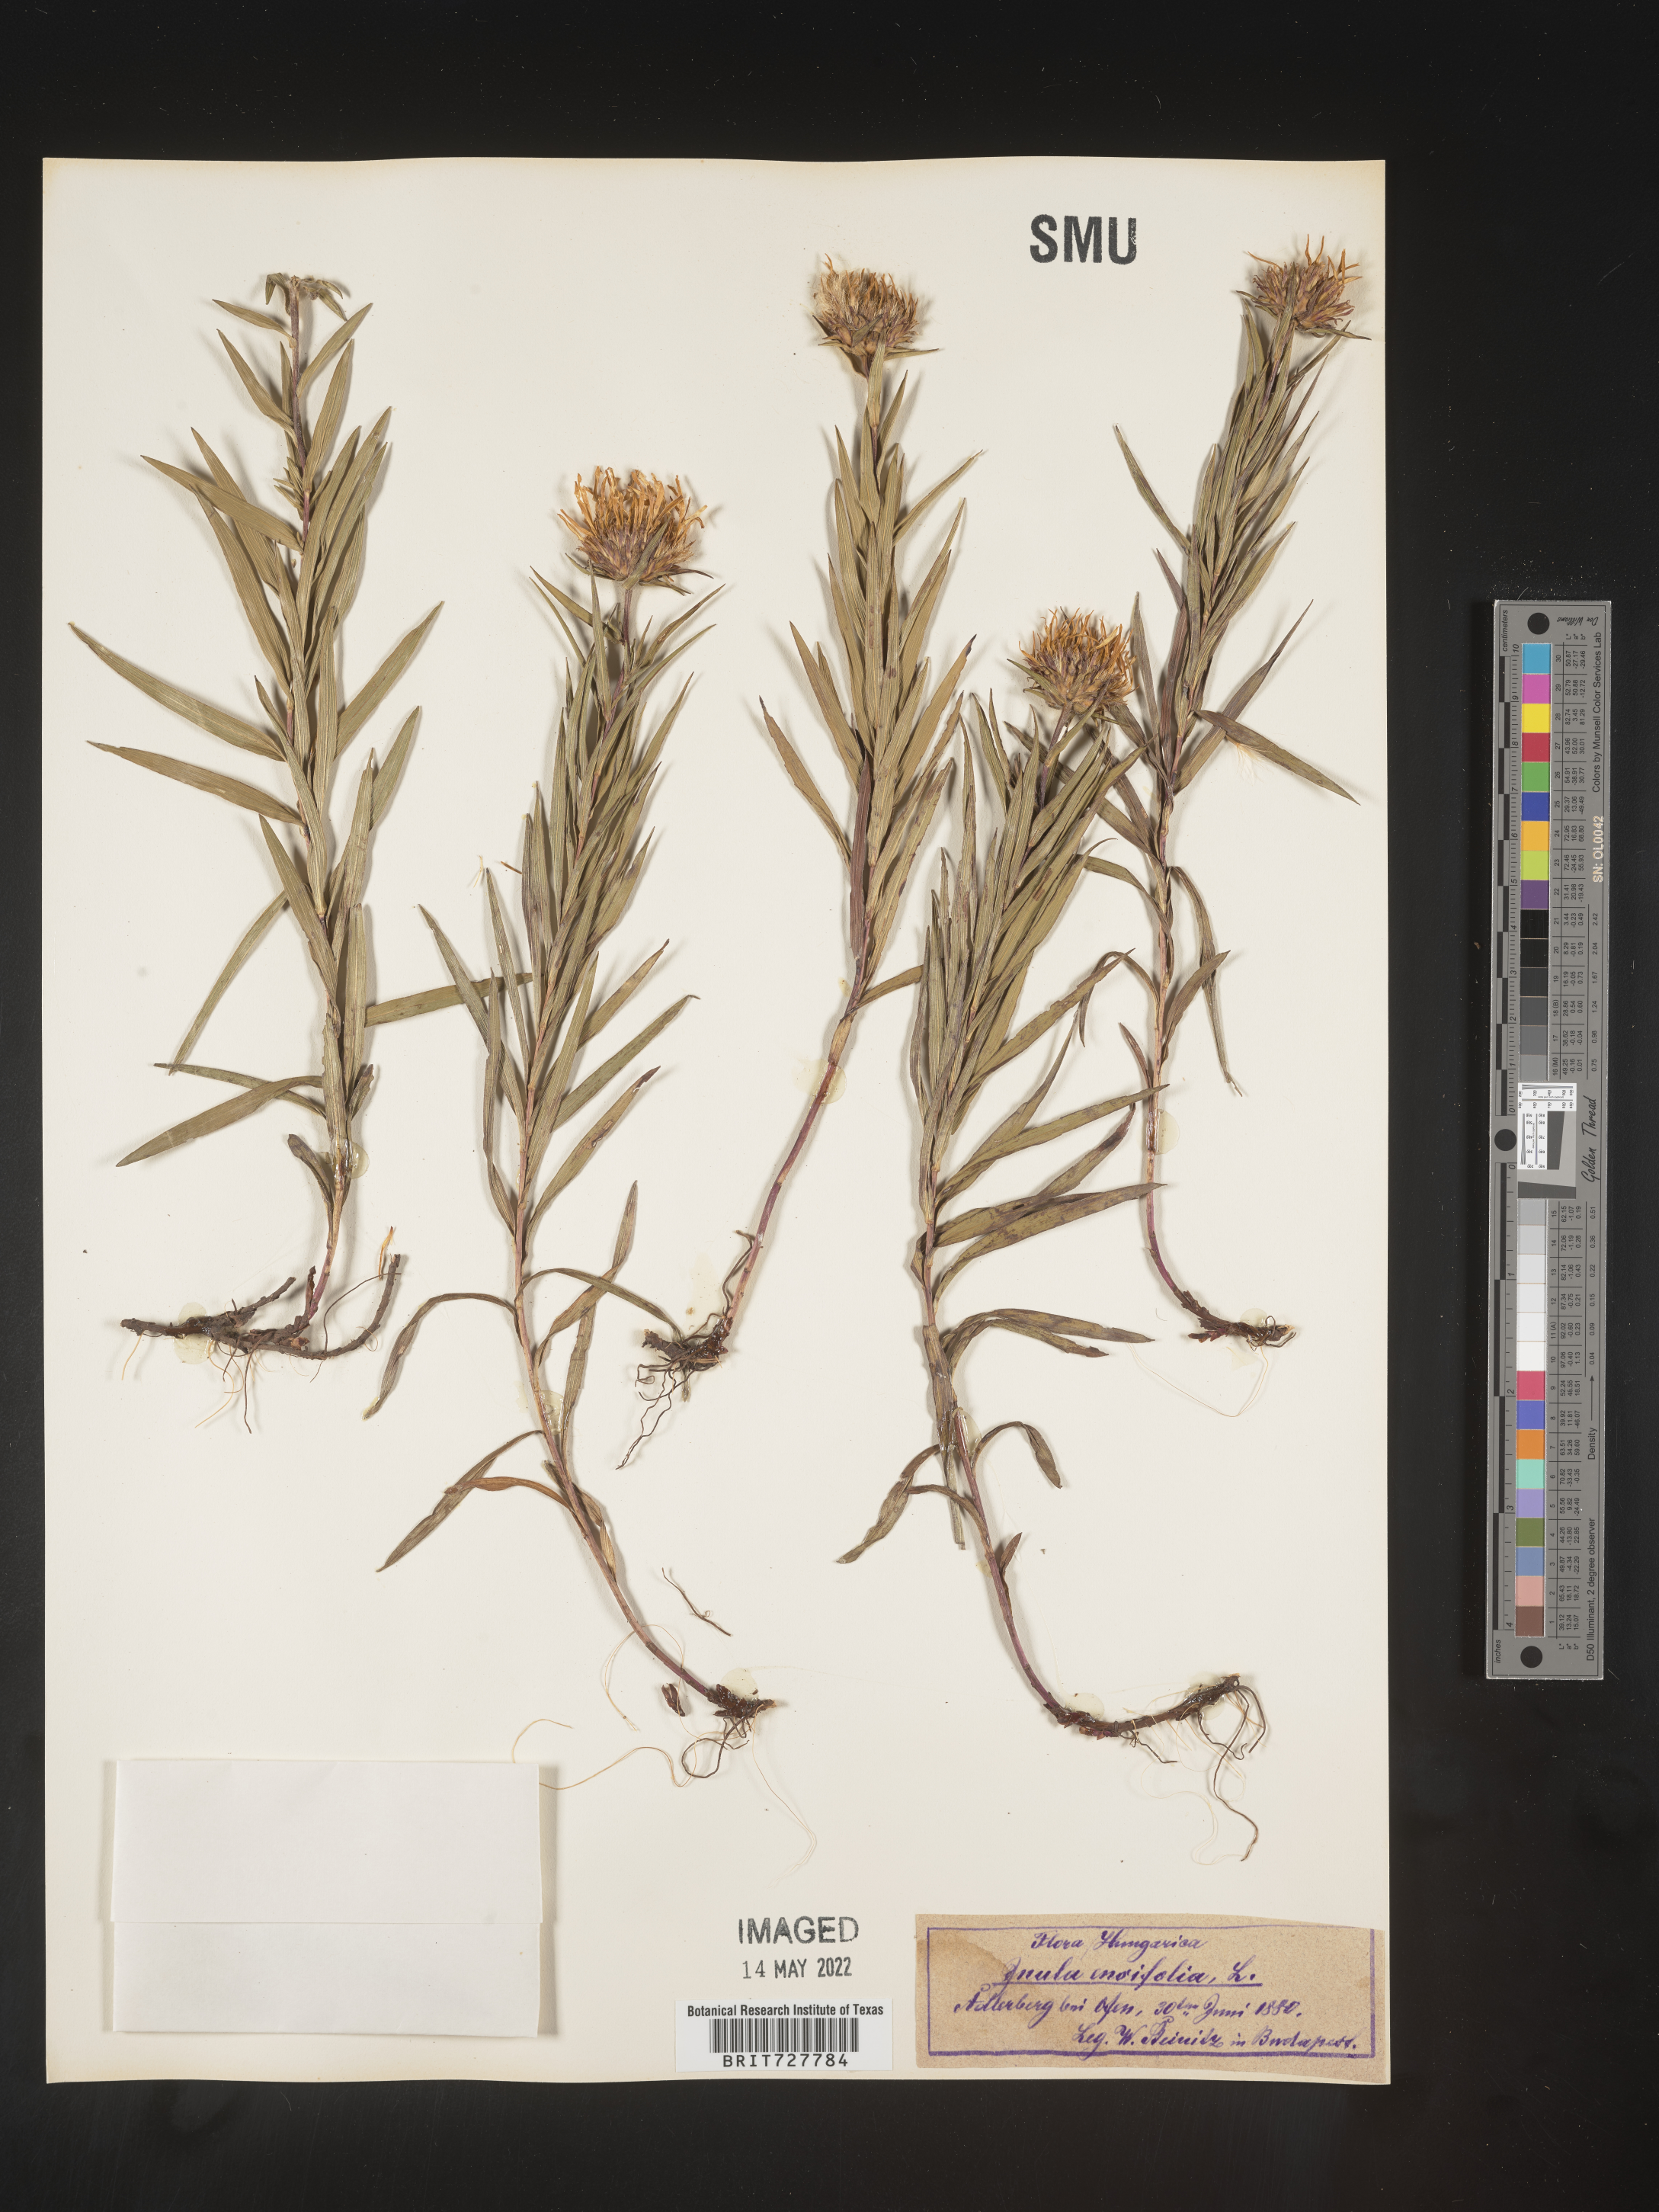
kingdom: Plantae
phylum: Tracheophyta
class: Magnoliopsida
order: Asterales
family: Asteraceae
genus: Inula
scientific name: Inula
